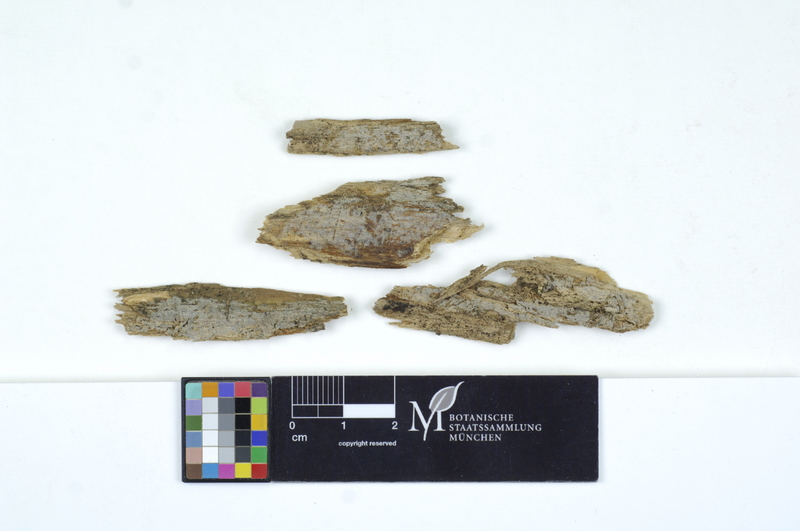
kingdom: Fungi
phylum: Basidiomycota
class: Agaricomycetes
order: Auriculariales
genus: Basidiodendron
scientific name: Basidiodendron caesiocinereum
